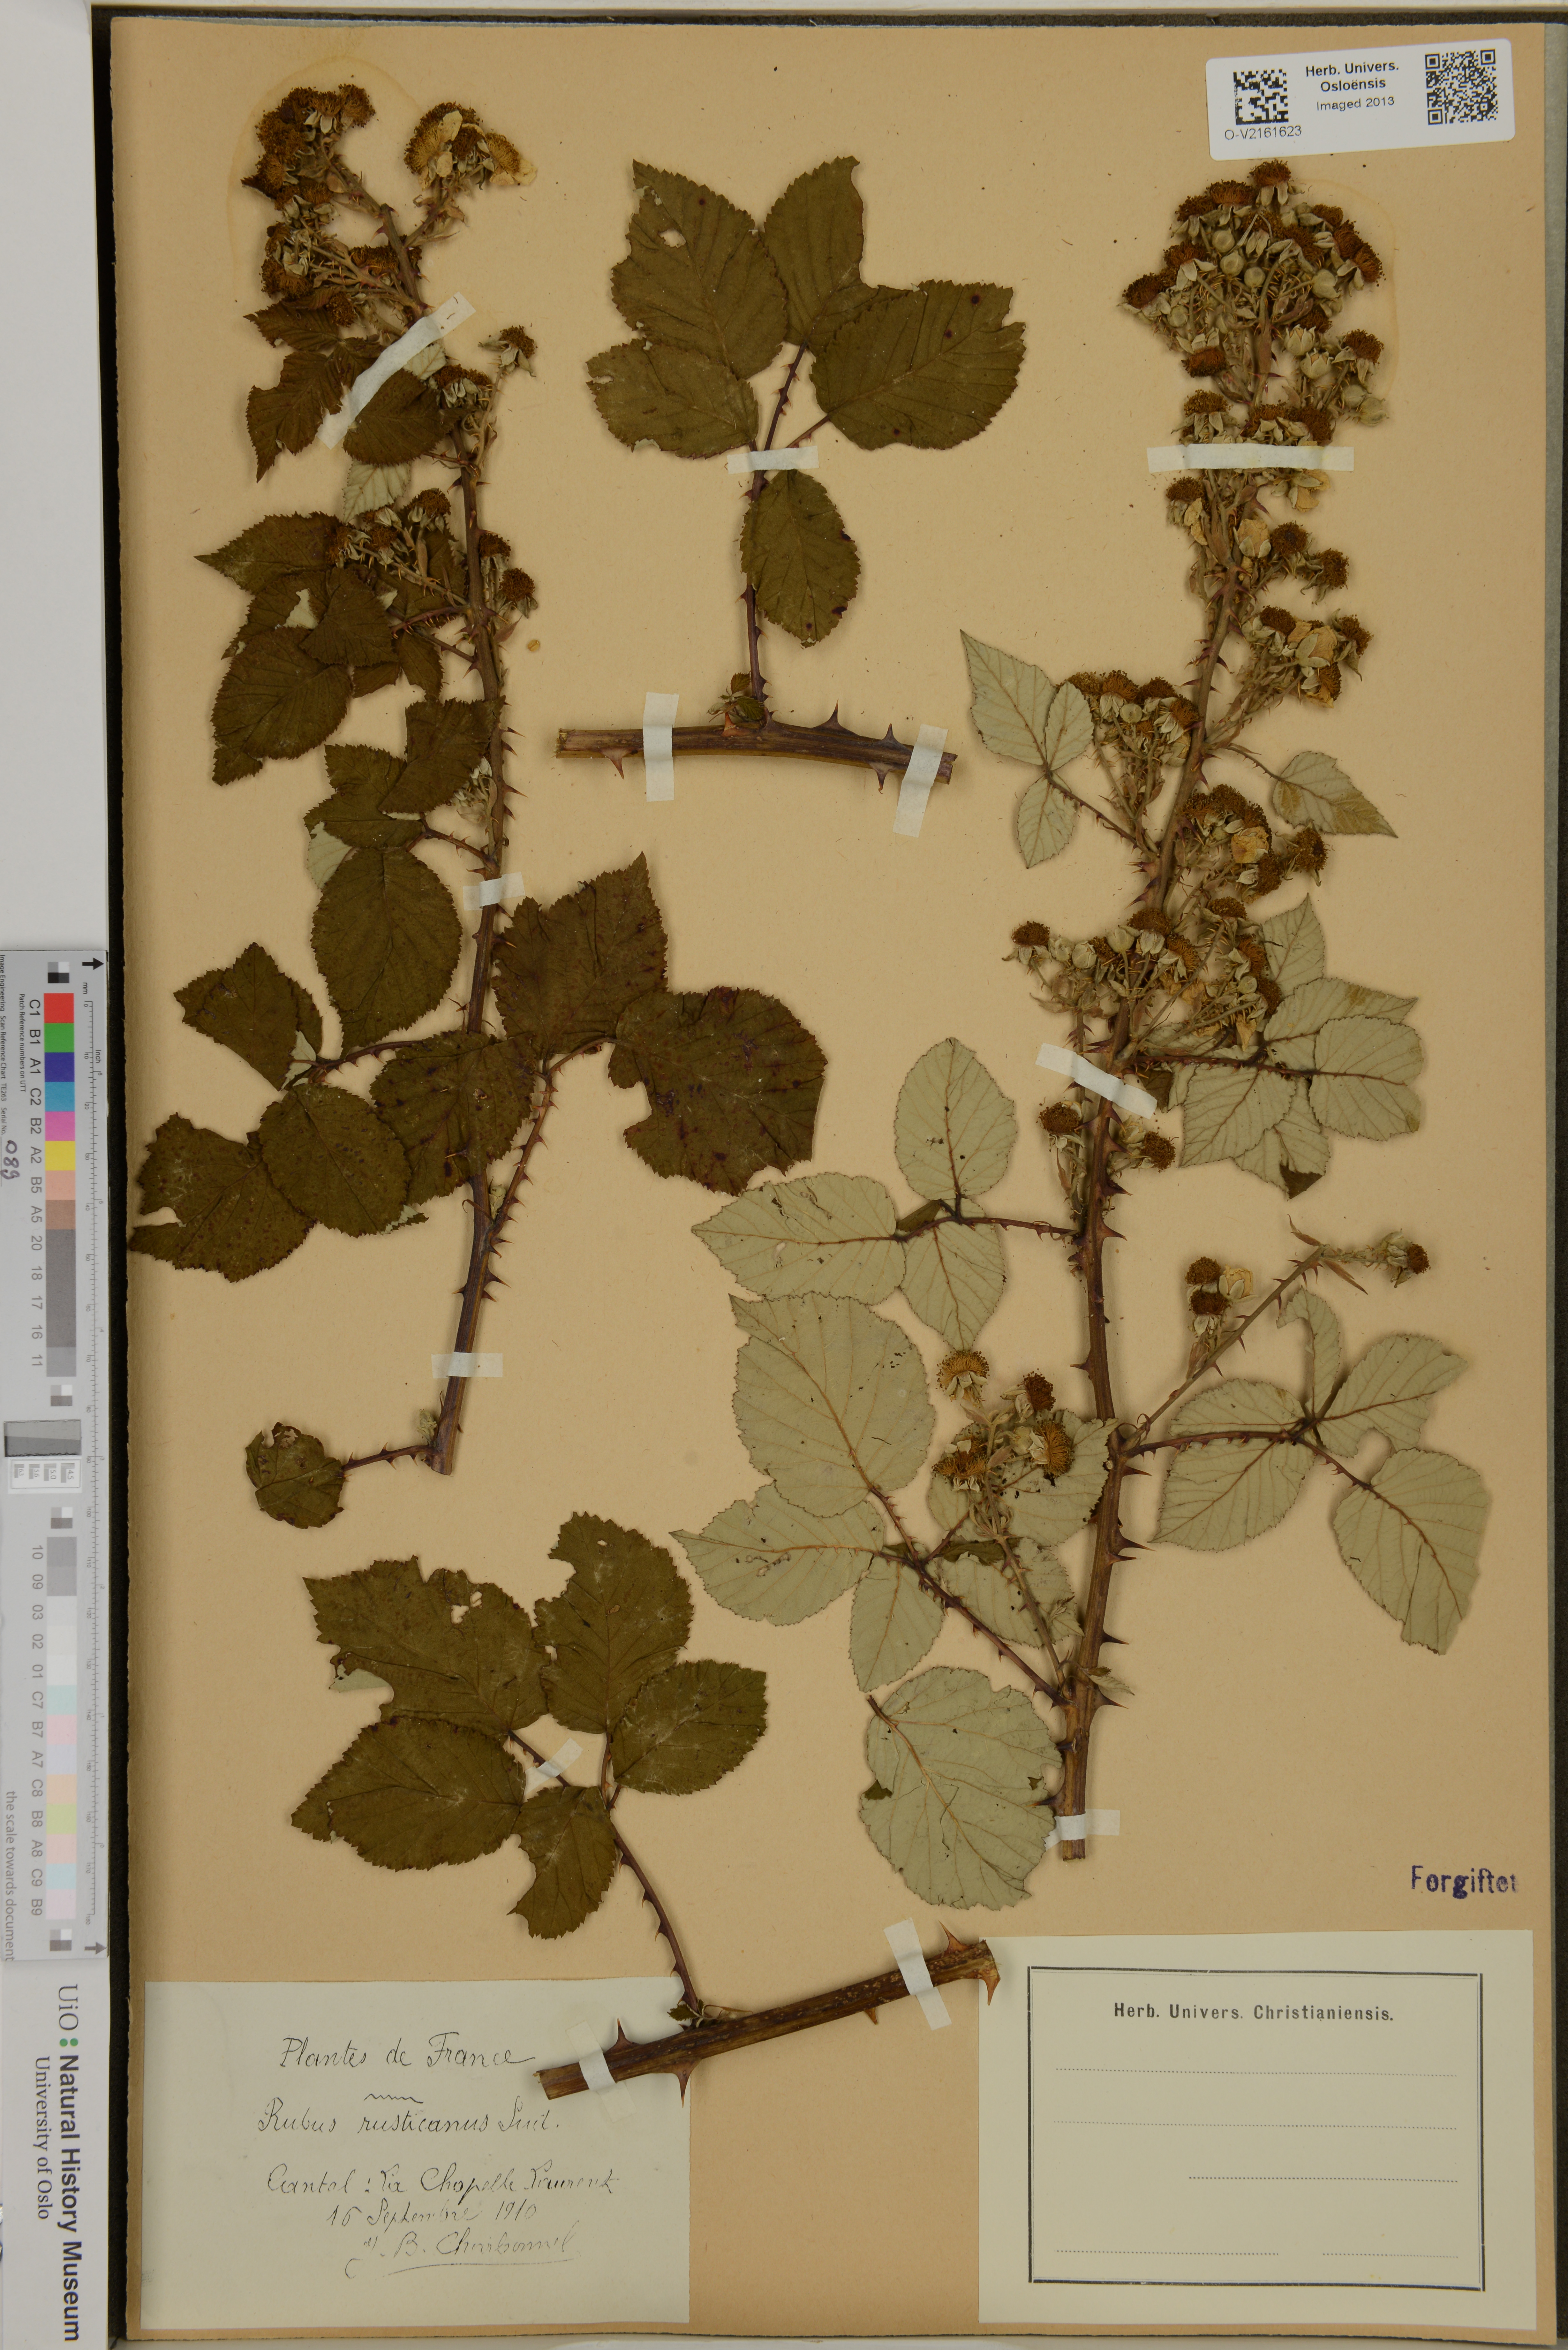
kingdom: Plantae
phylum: Tracheophyta
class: Magnoliopsida
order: Rosales
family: Rosaceae
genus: Rubus
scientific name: Rubus ulmifolius
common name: Elmleaf blackberry
